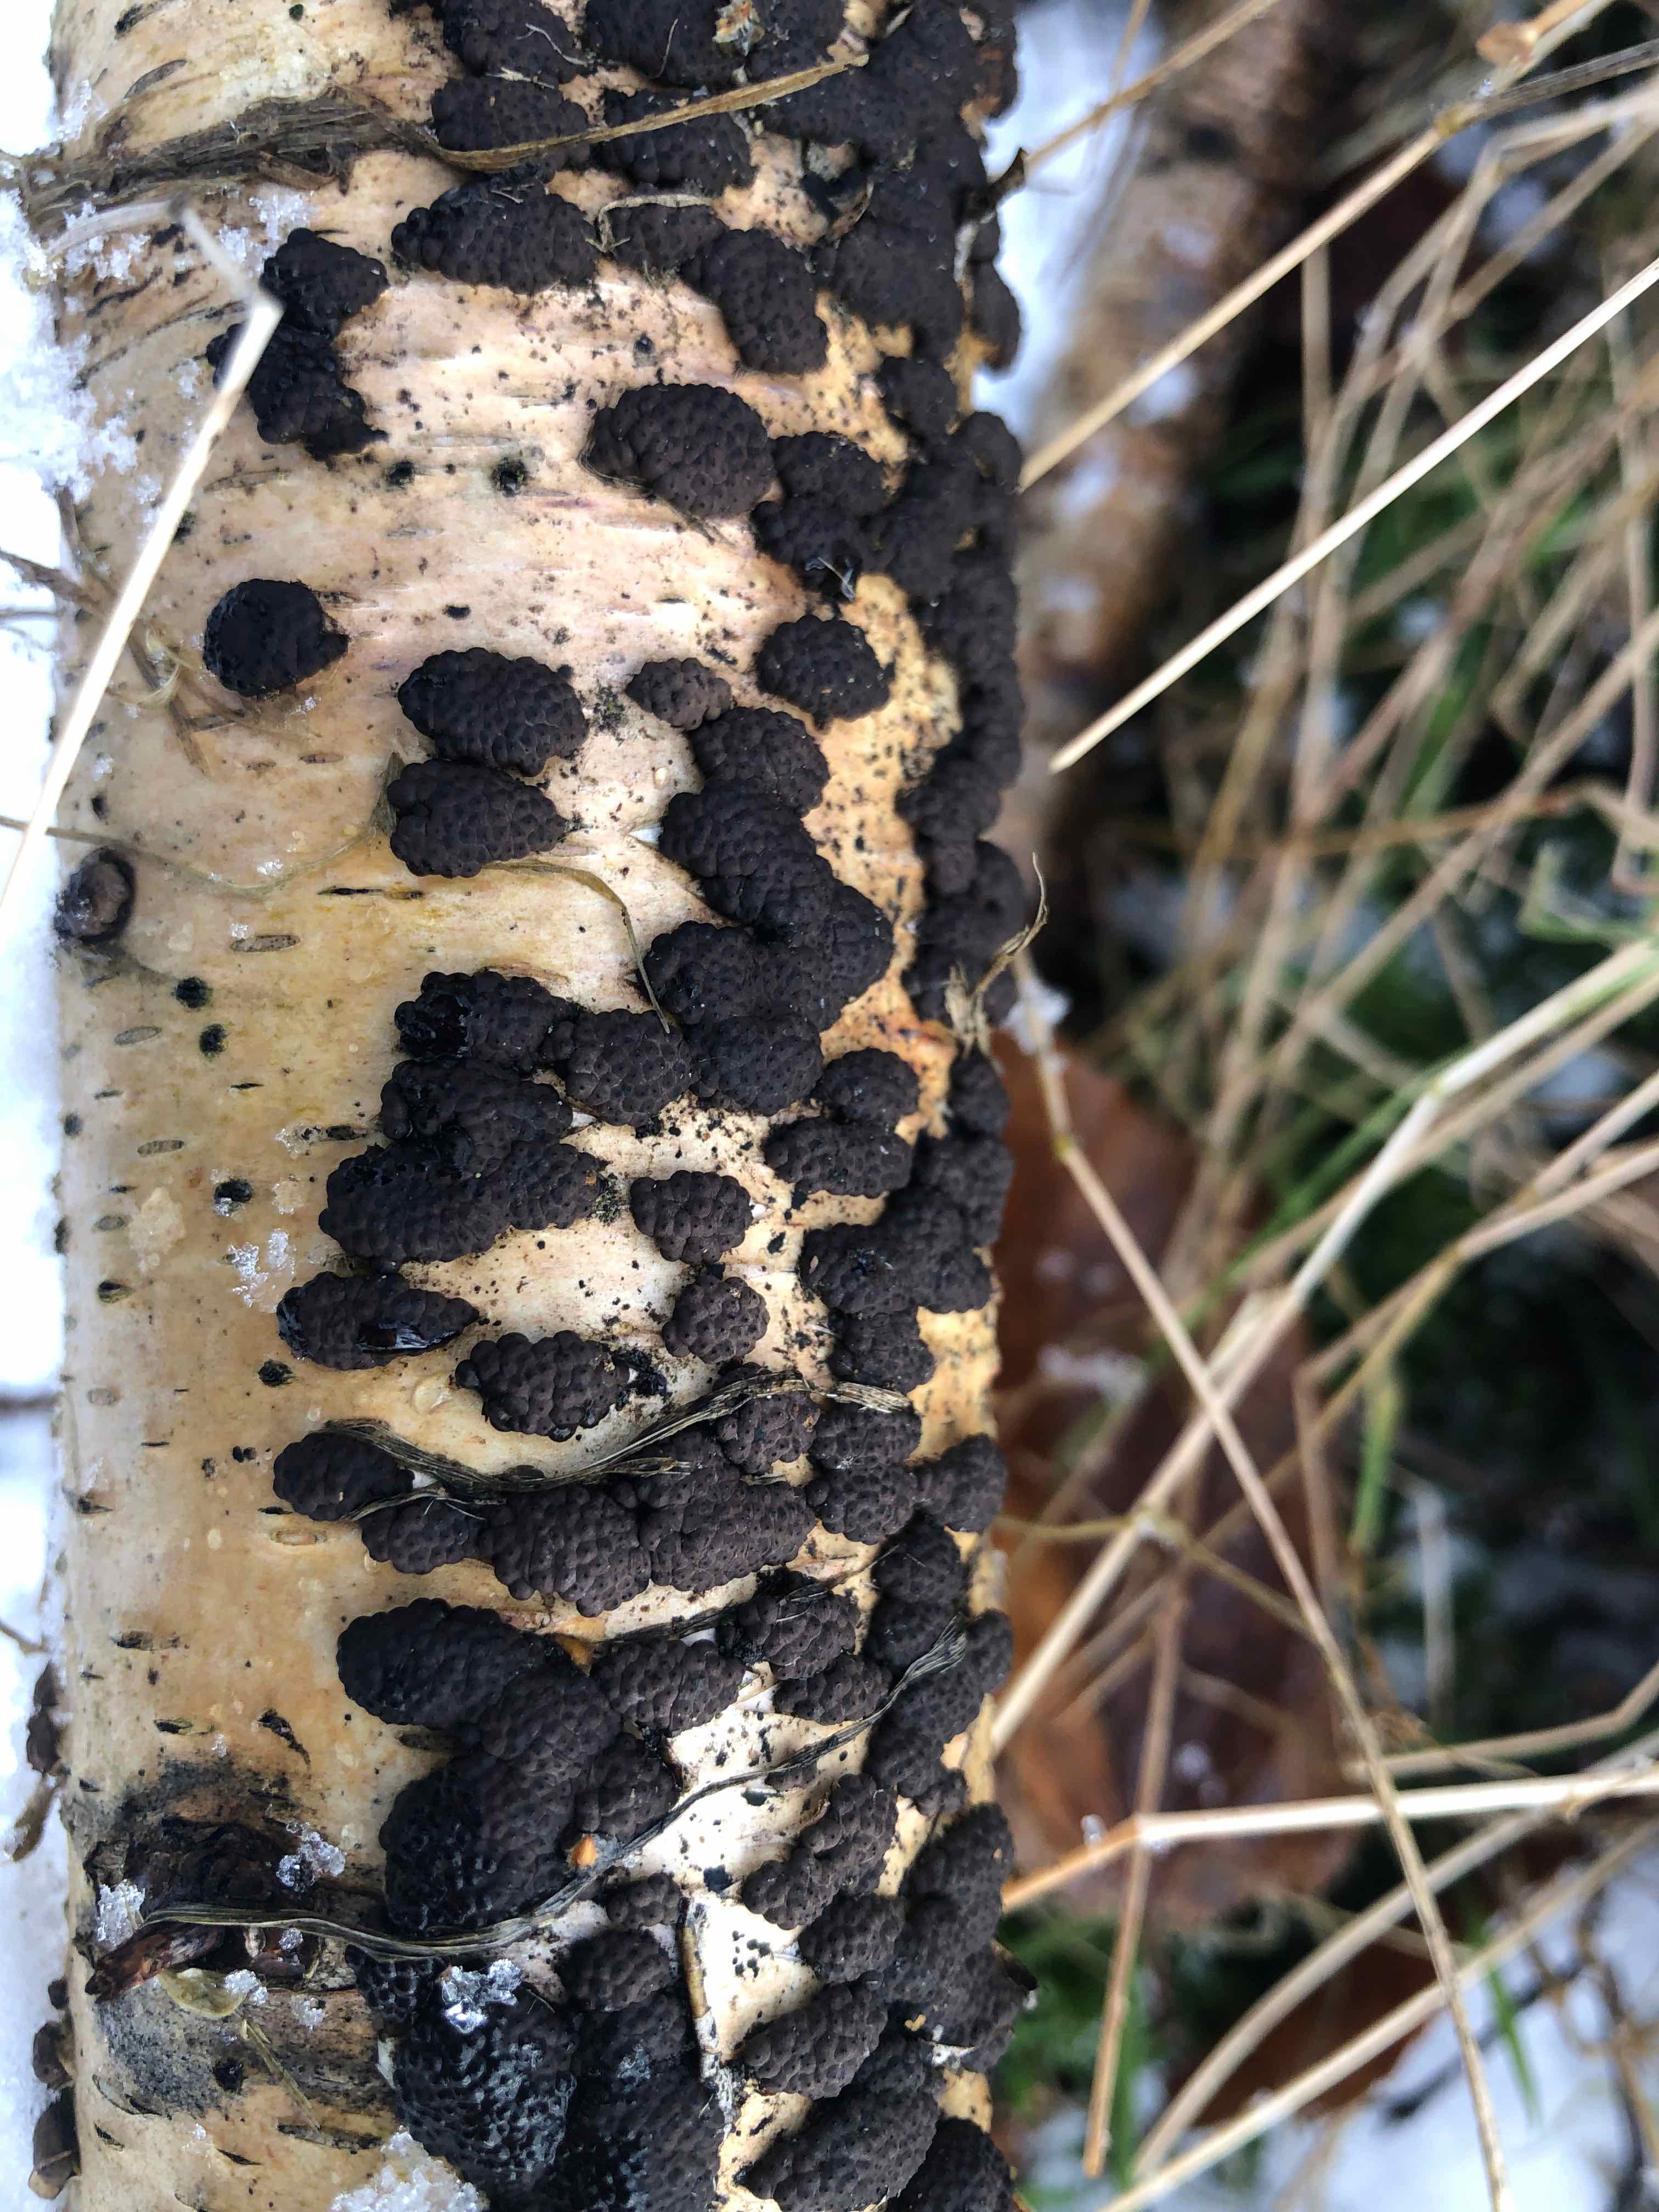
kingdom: Fungi
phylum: Ascomycota
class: Sordariomycetes
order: Xylariales
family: Hypoxylaceae
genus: Jackrogersella
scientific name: Jackrogersella multiformis
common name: foranderlig kulbær
